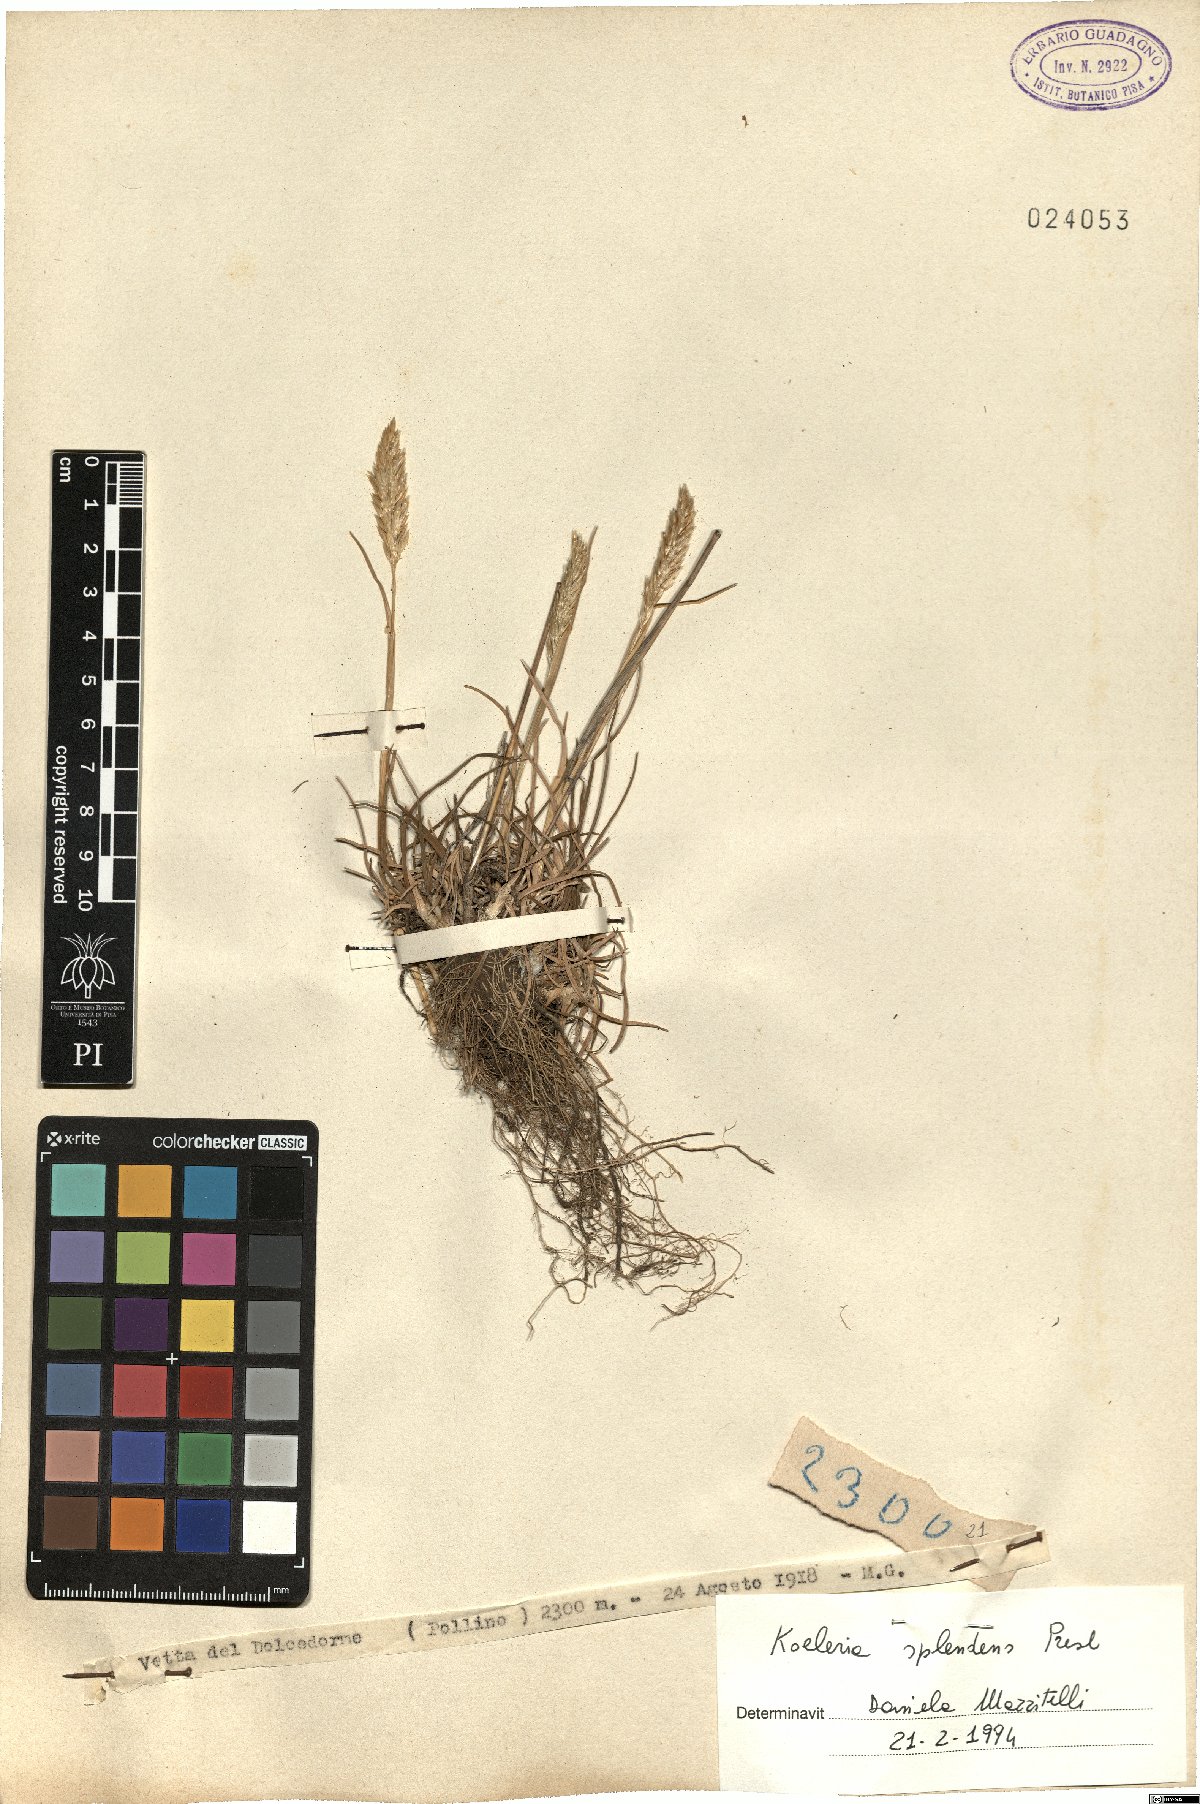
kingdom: Plantae
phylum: Tracheophyta
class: Liliopsida
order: Poales
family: Poaceae
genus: Koeleria
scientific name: Koeleria splendens
